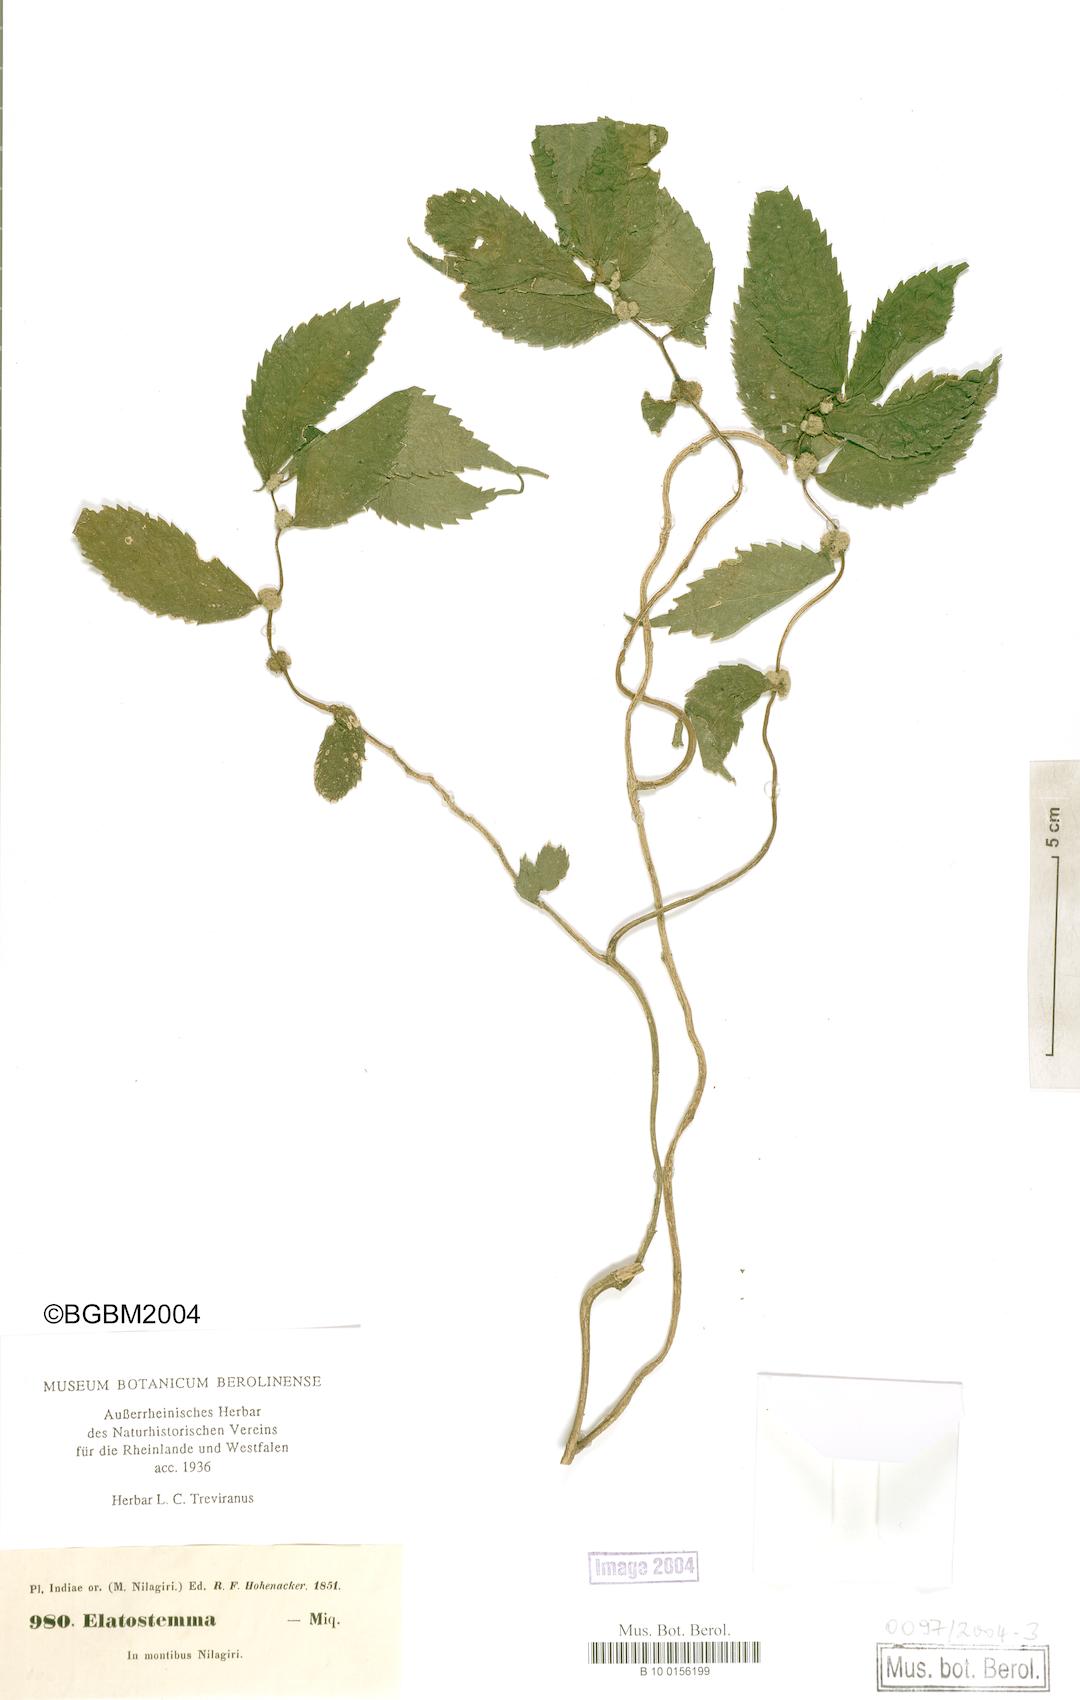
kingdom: Plantae
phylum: Tracheophyta
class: Magnoliopsida
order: Rosales
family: Urticaceae
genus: Elatostema
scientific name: Elatostema
